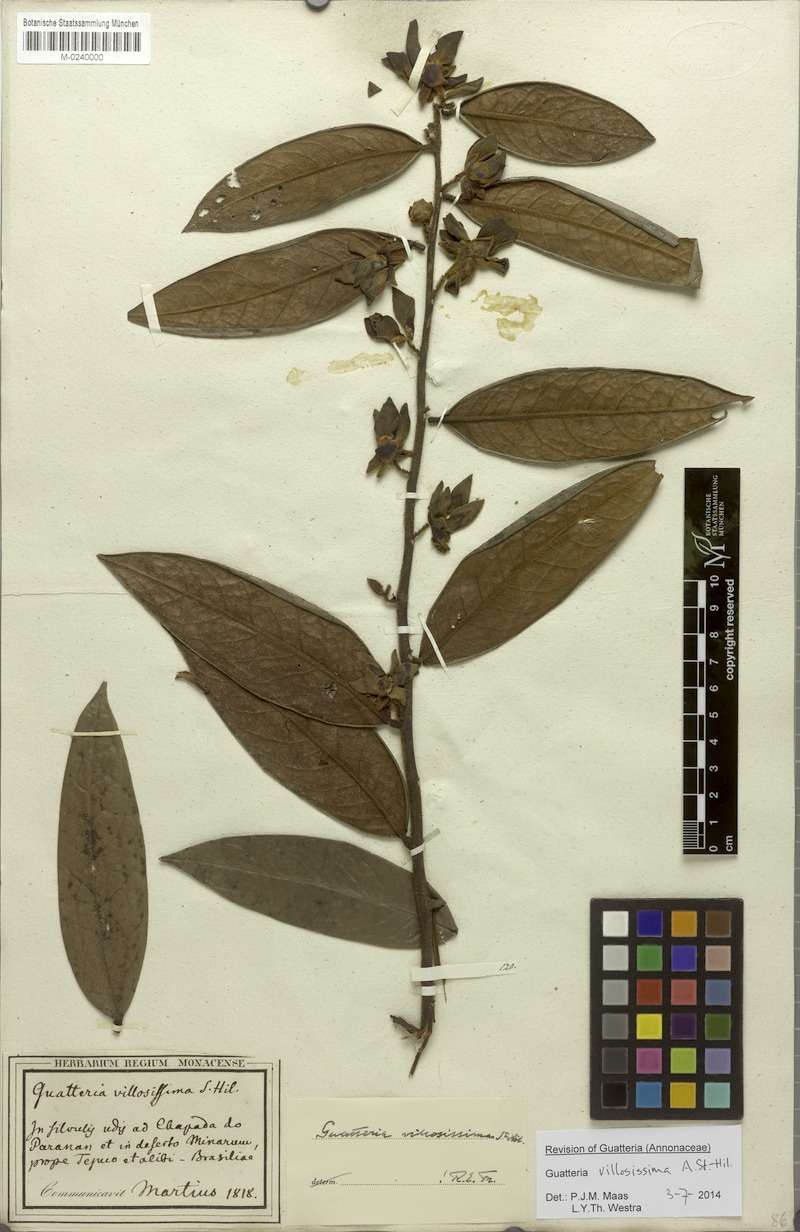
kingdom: Plantae
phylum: Tracheophyta
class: Magnoliopsida
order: Magnoliales
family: Annonaceae
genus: Guatteria
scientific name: Guatteria villosissima
